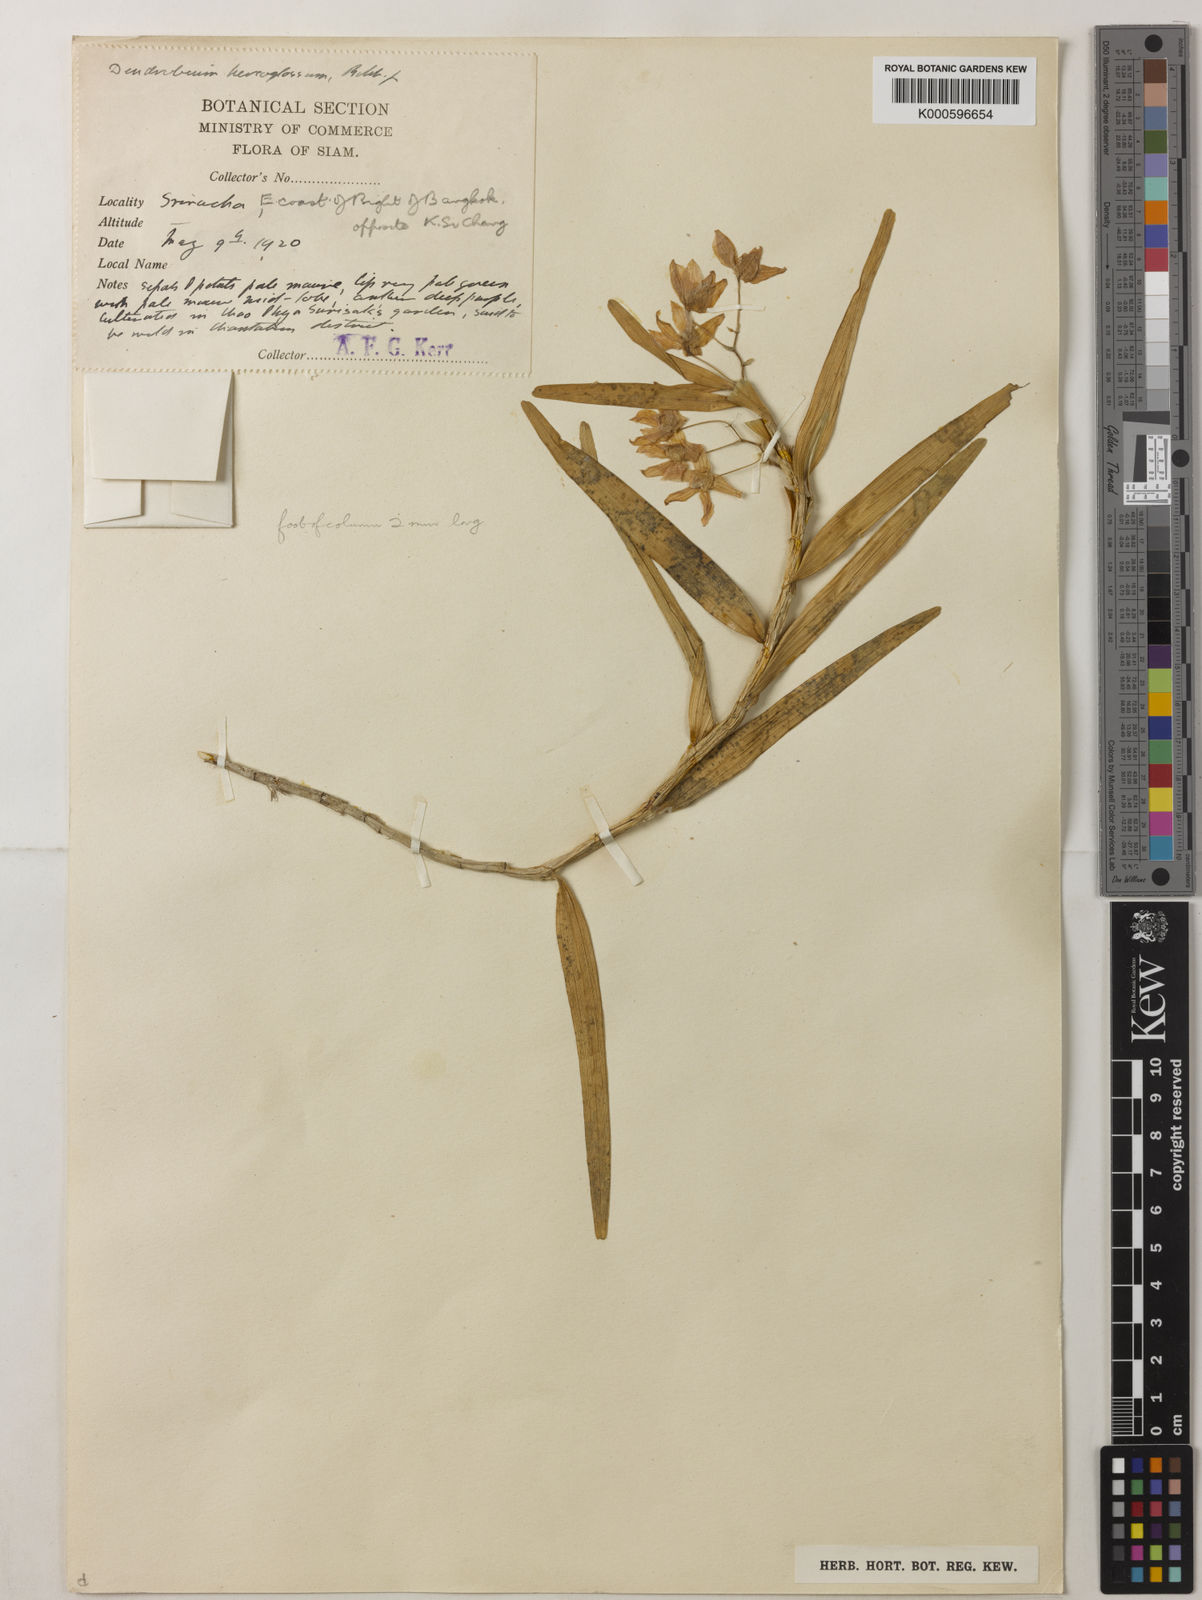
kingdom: Plantae
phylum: Tracheophyta
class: Liliopsida
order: Asparagales
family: Orchidaceae
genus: Dendrobium
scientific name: Dendrobium hercoglossum
